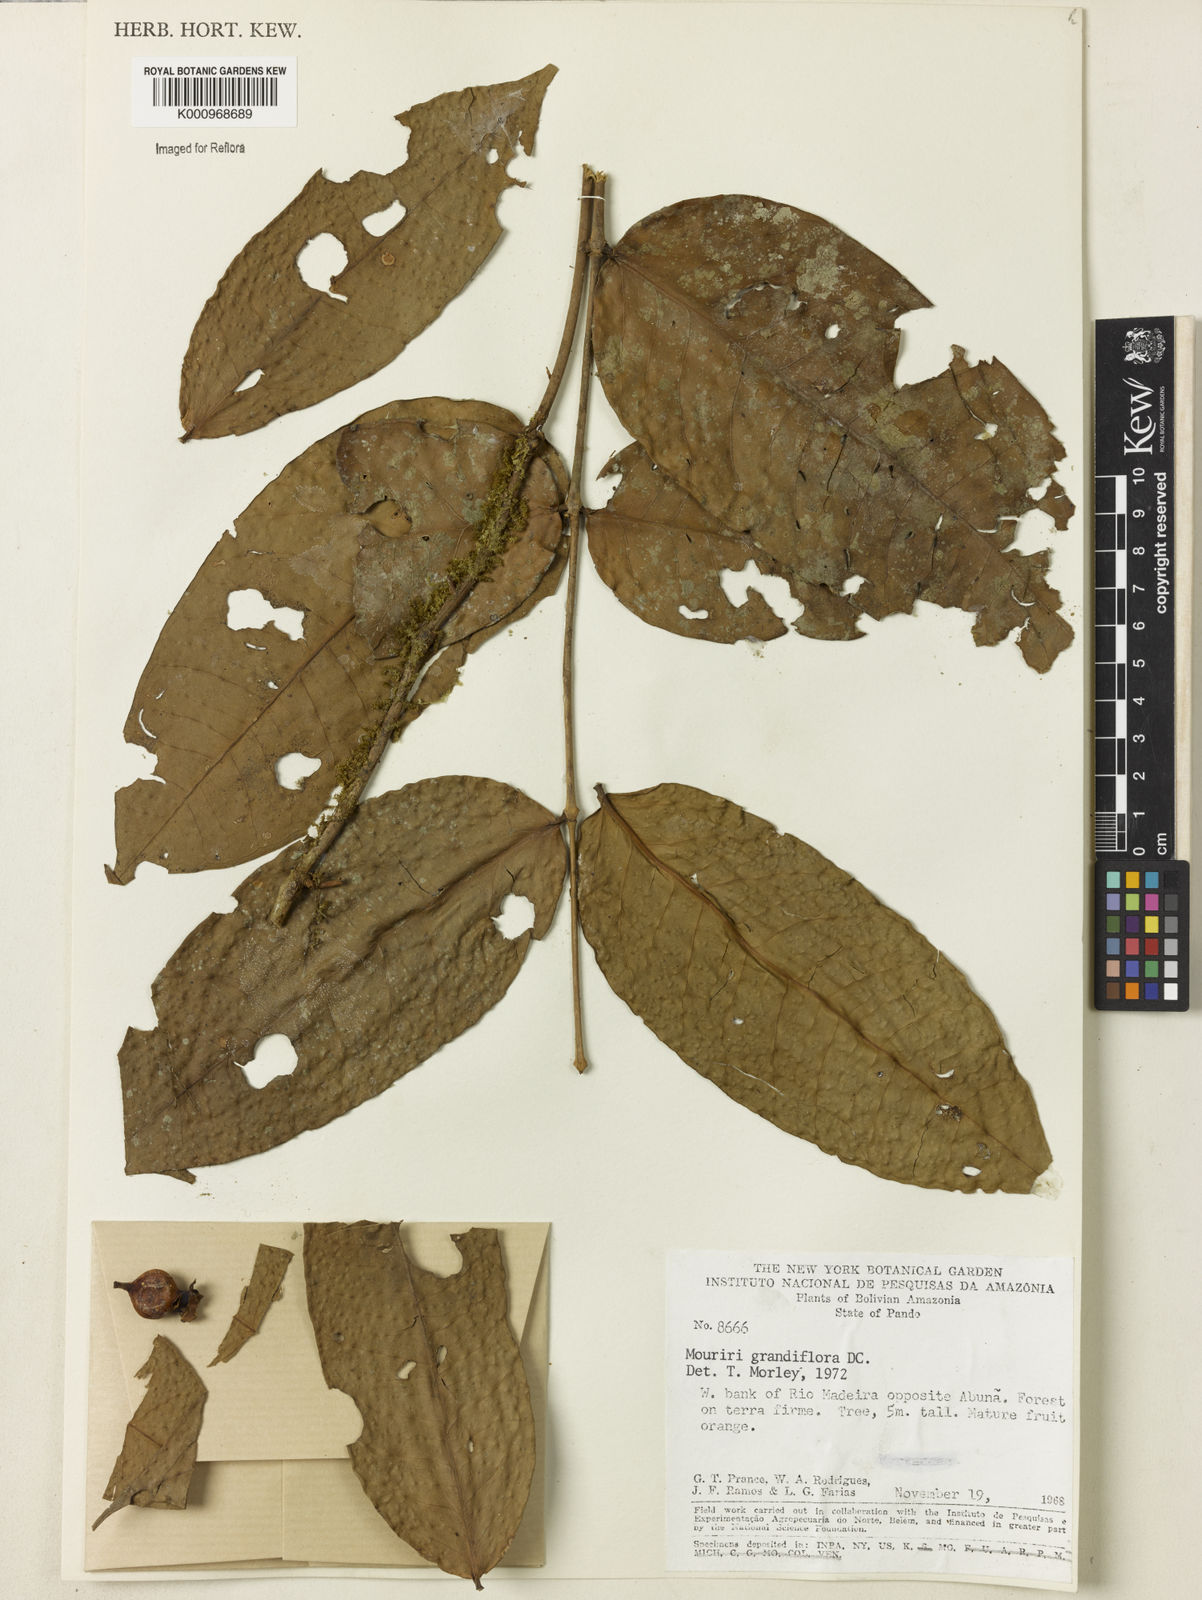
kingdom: Plantae
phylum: Tracheophyta
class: Magnoliopsida
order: Myrtales
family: Melastomataceae
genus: Mouriri
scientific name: Mouriri grandiflora
